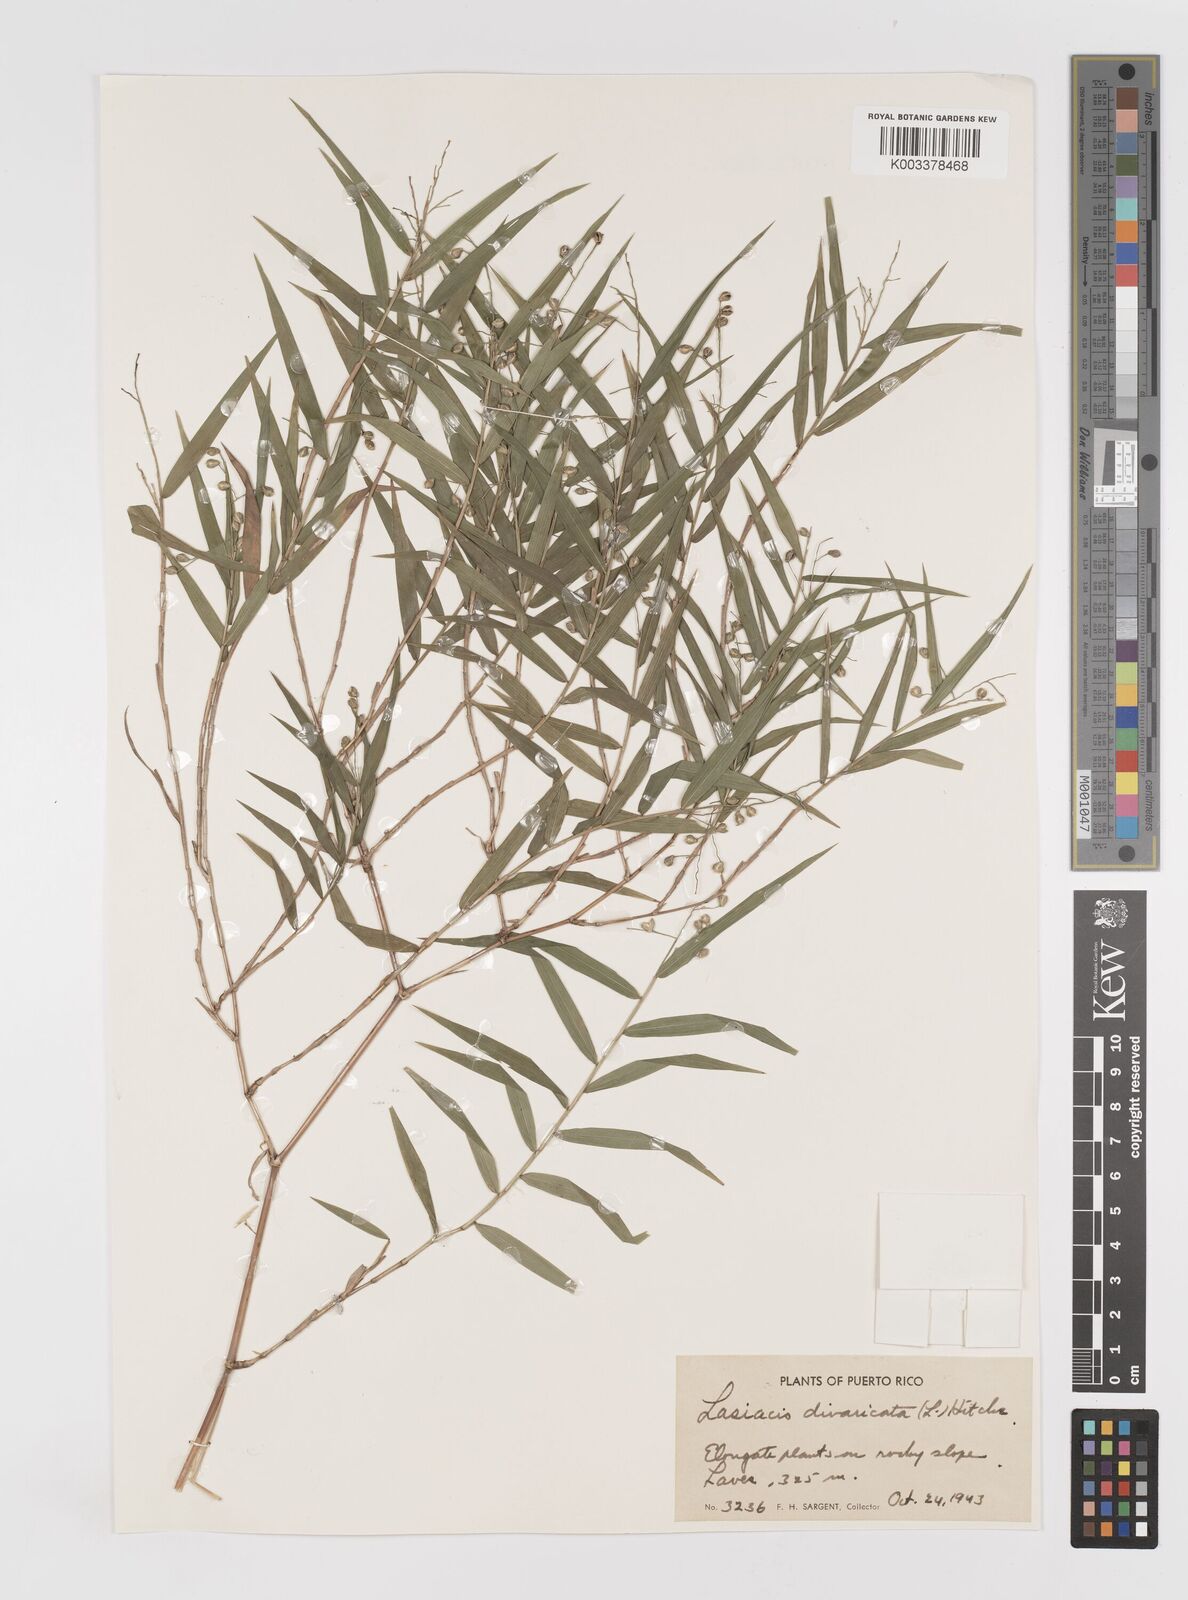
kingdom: Plantae
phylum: Tracheophyta
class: Liliopsida
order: Poales
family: Poaceae
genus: Lasiacis
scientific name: Lasiacis divaricata
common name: Smallcane
